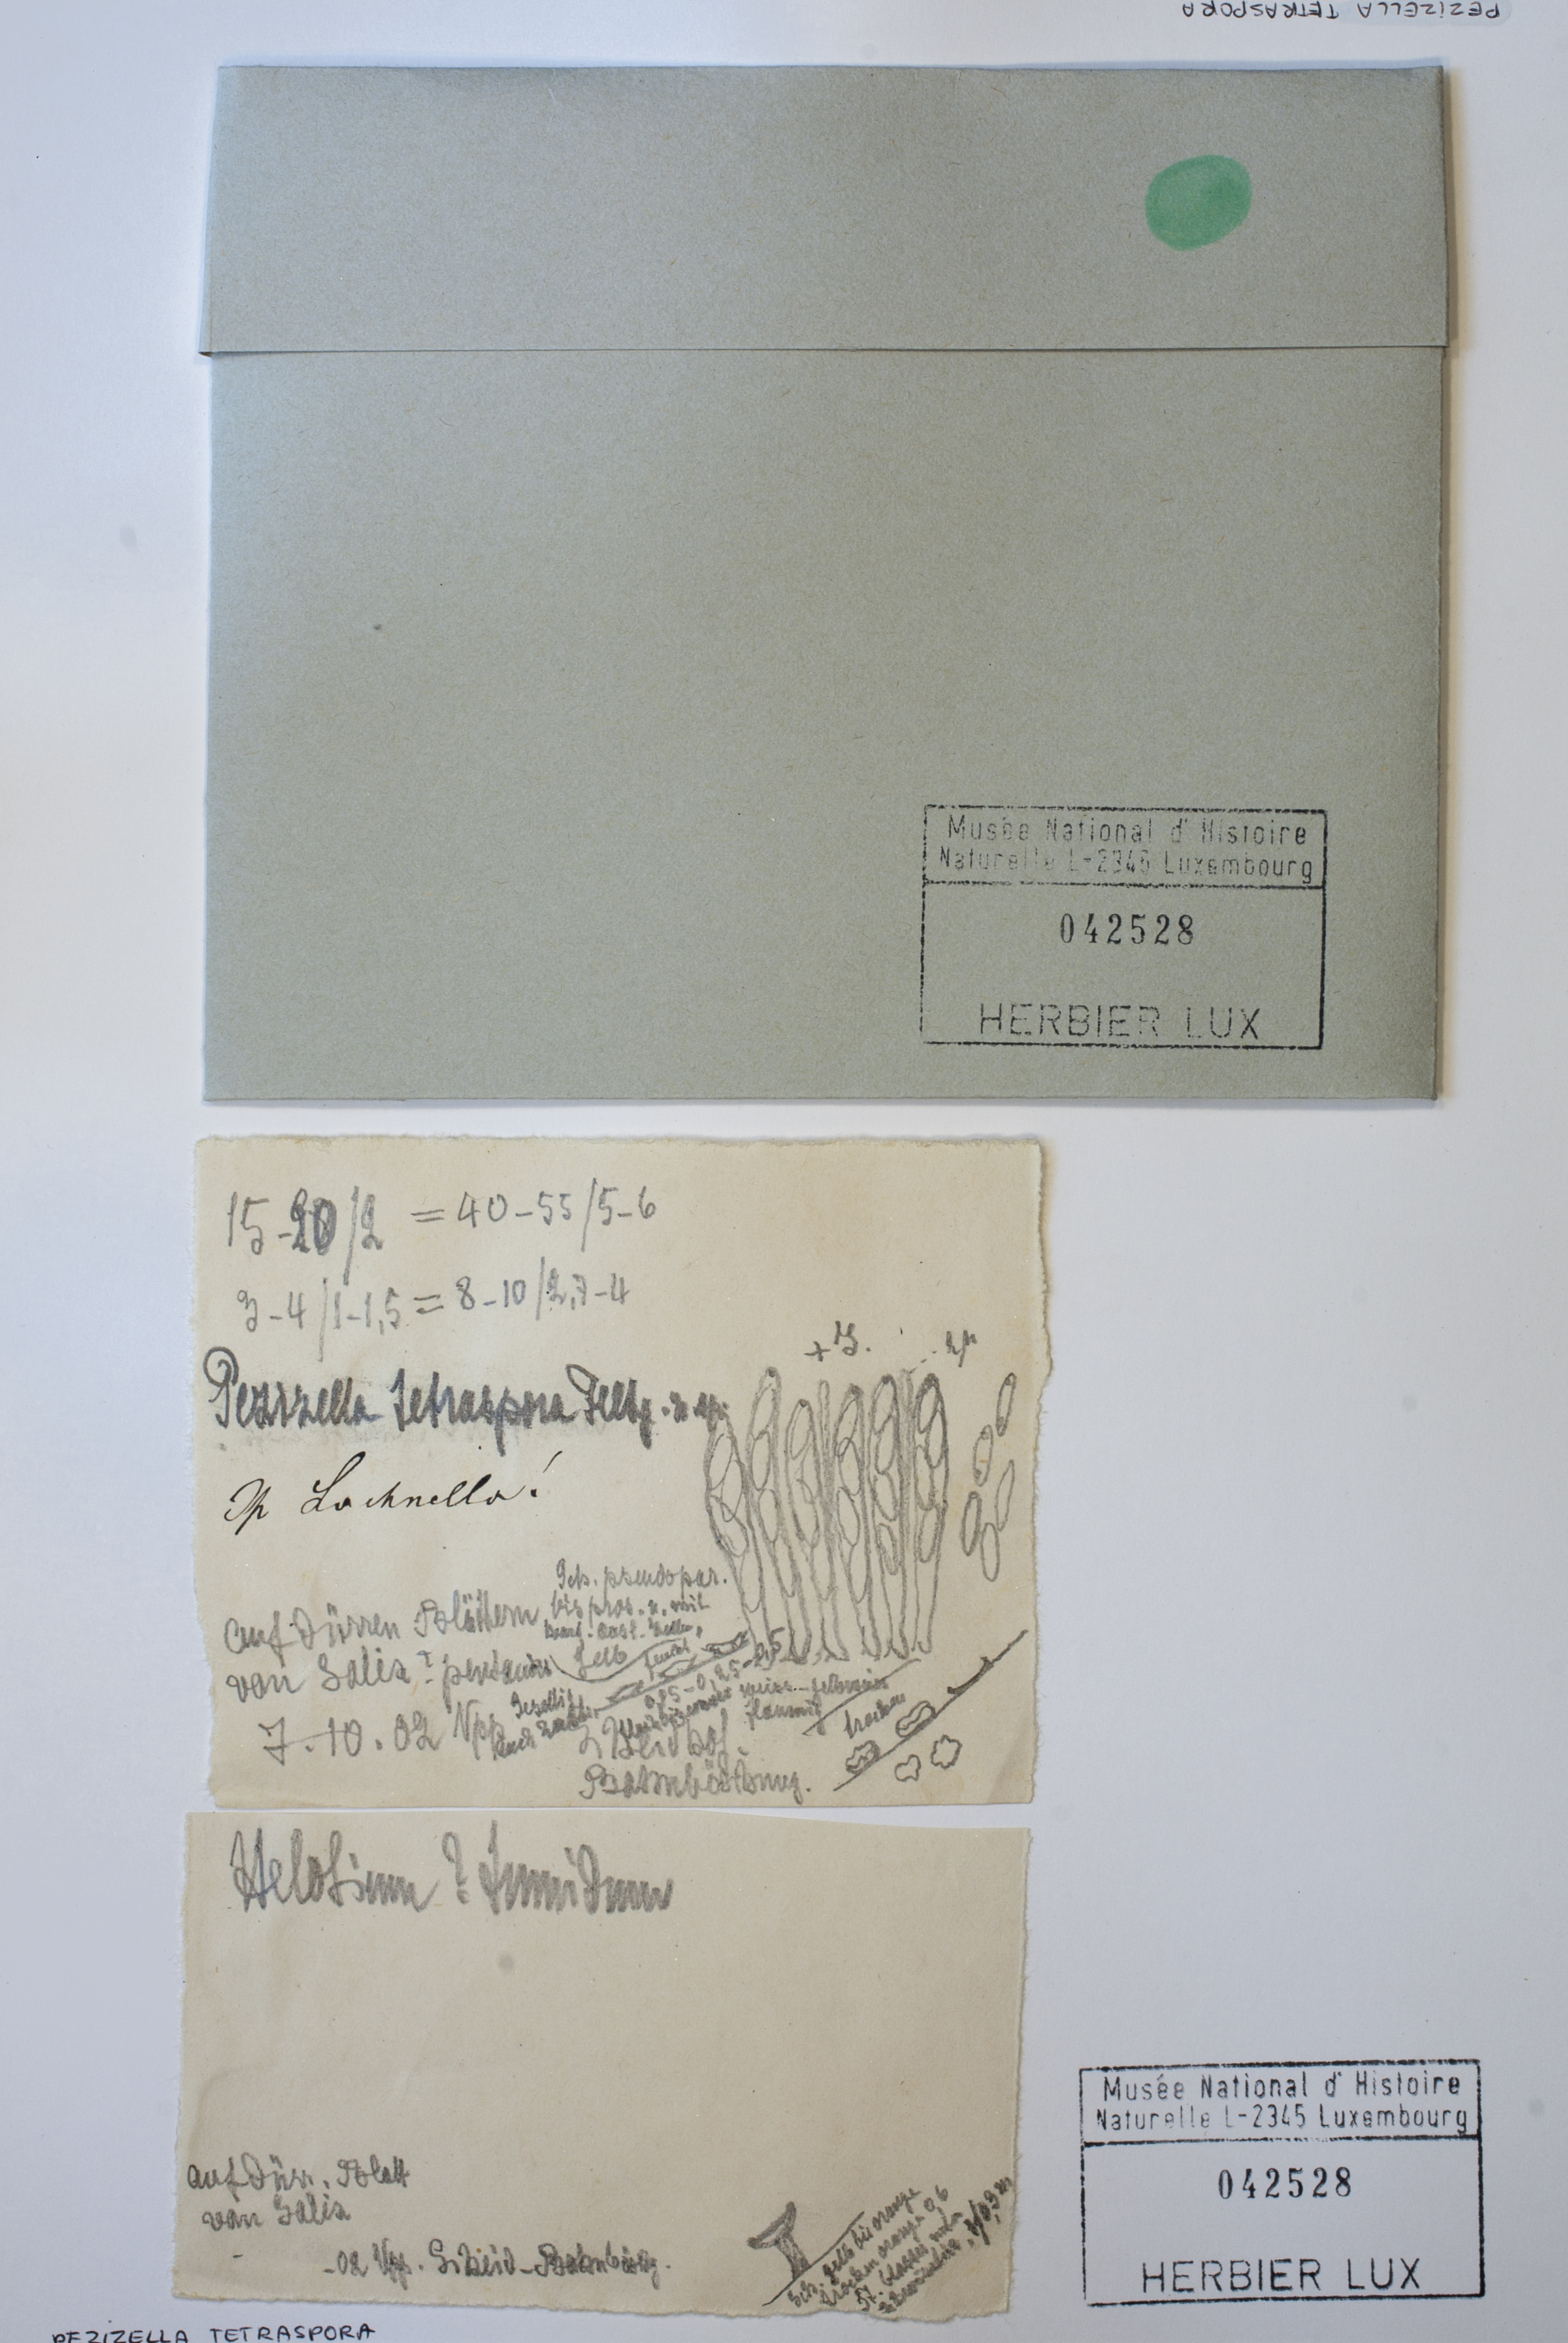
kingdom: Fungi
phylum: Basidiomycota
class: Agaricomycetes
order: Agaricales
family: Niaceae
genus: Lachnella
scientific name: Lachnella tetraspora
